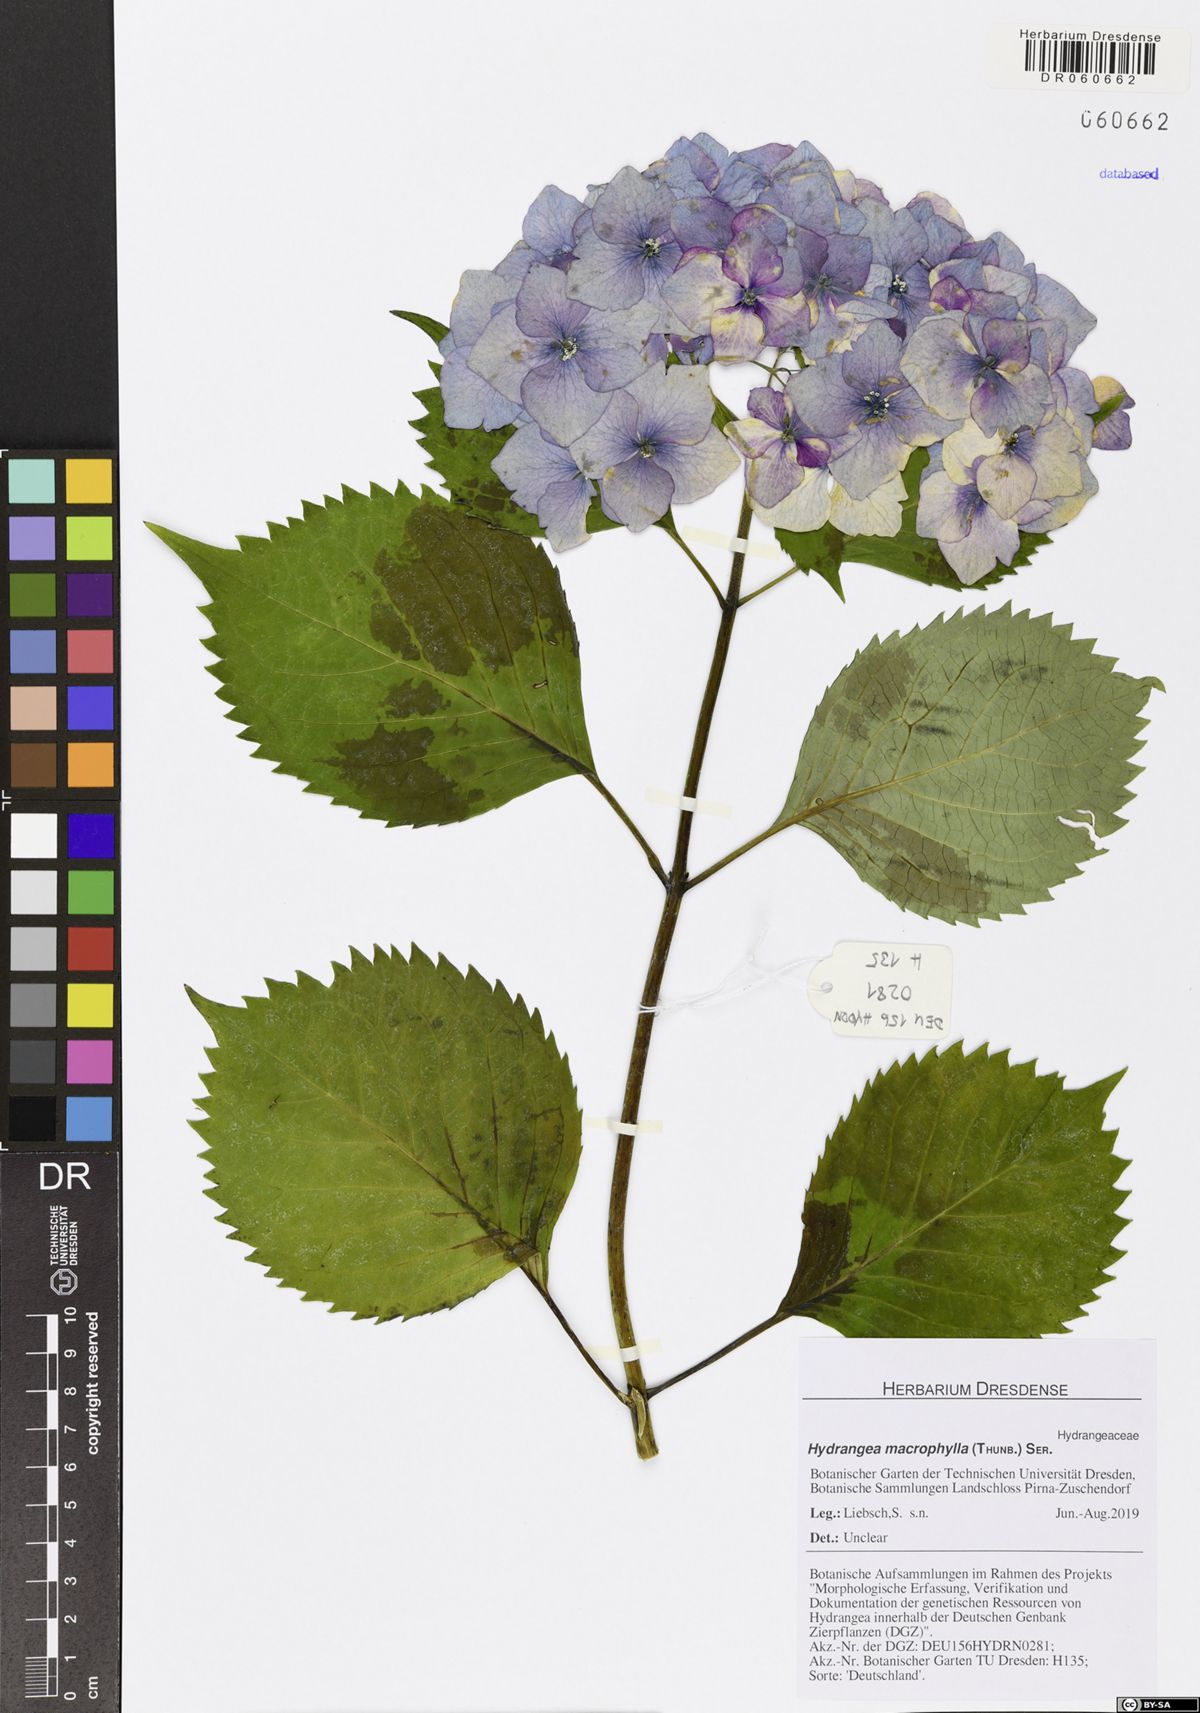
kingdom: Plantae
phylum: Tracheophyta
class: Magnoliopsida
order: Cornales
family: Hydrangeaceae
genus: Hydrangea
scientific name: Hydrangea macrophylla
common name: Hydrangea
